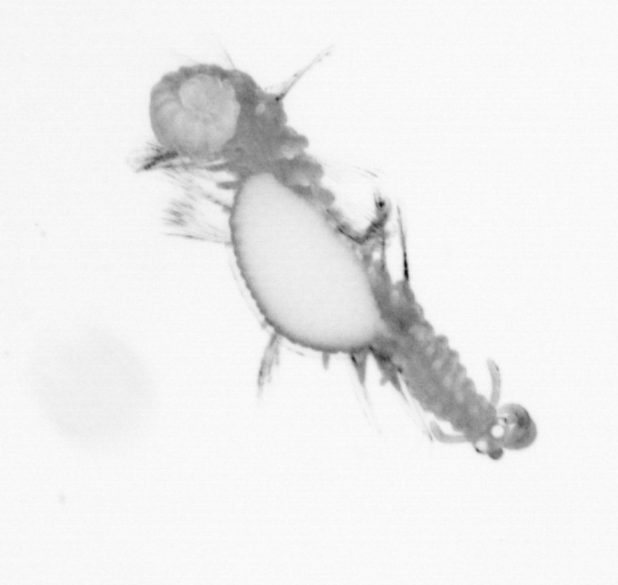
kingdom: Animalia
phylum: Annelida
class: Polychaeta
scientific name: Polychaeta
